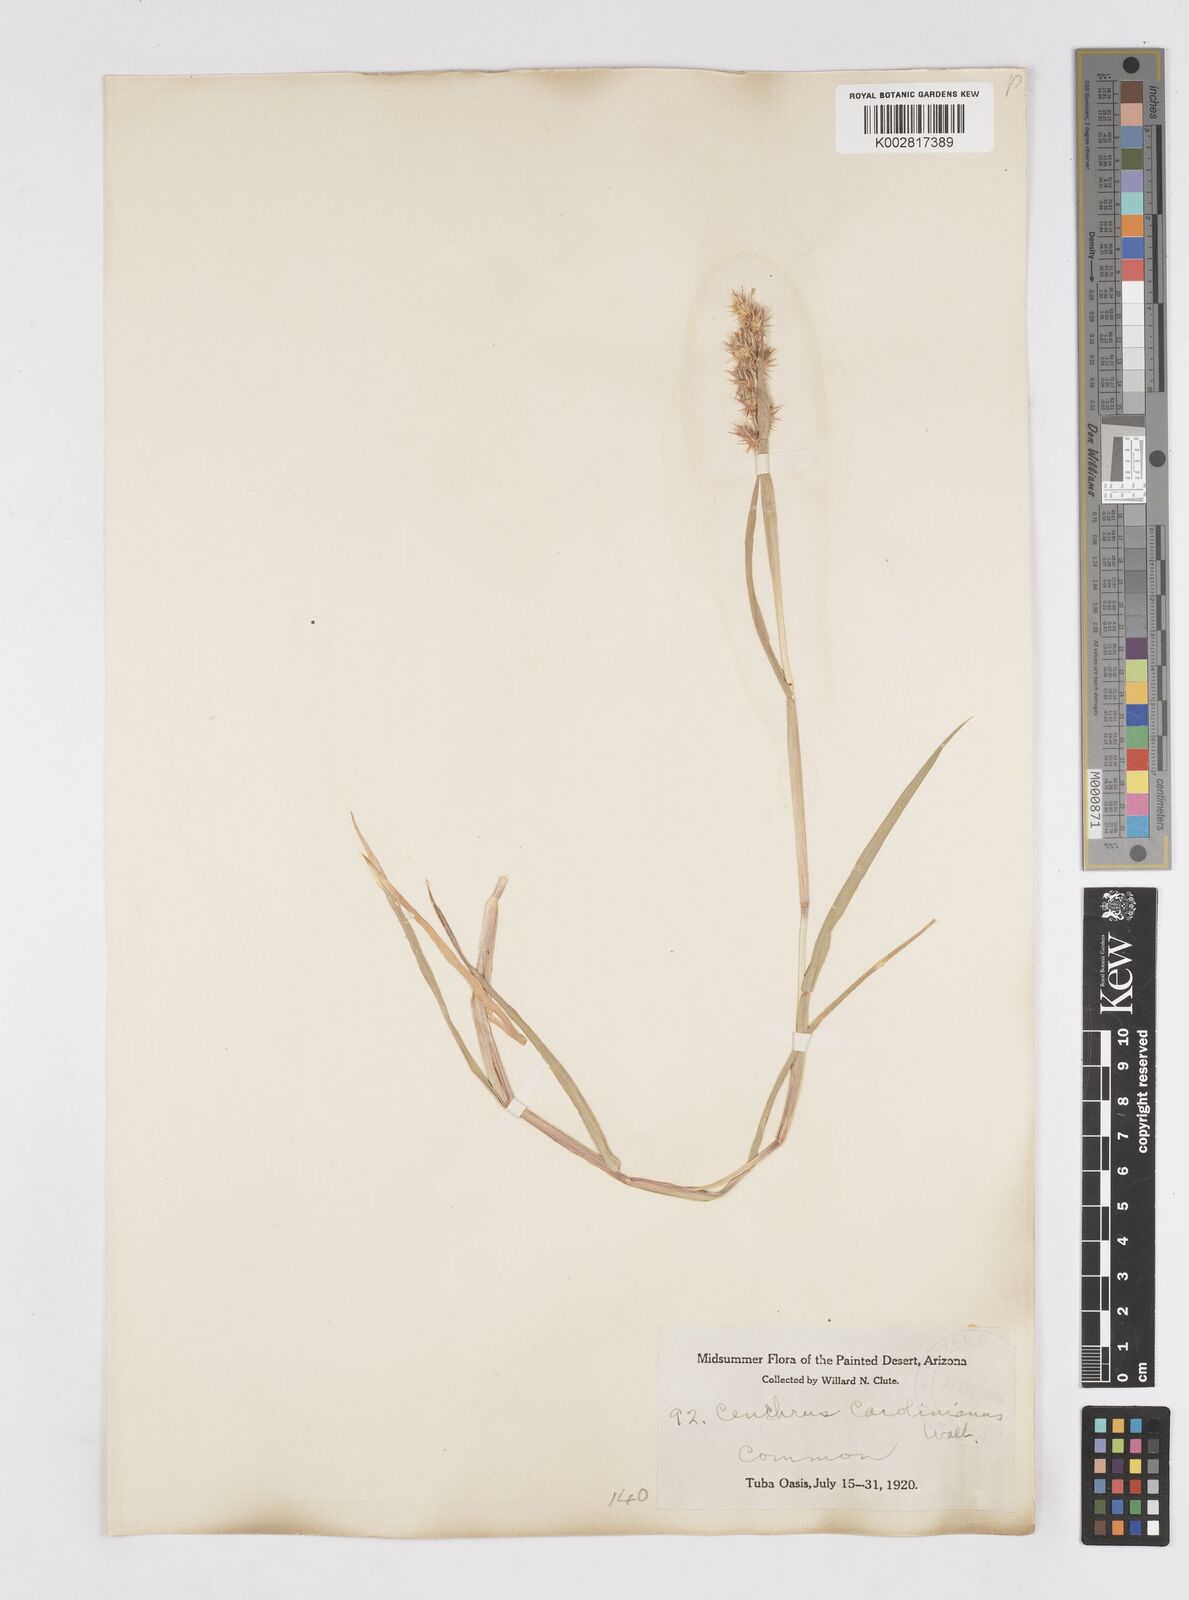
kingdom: Plantae
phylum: Tracheophyta
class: Liliopsida
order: Poales
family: Poaceae
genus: Cenchrus
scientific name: Cenchrus longispinus
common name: Mat sandbur
